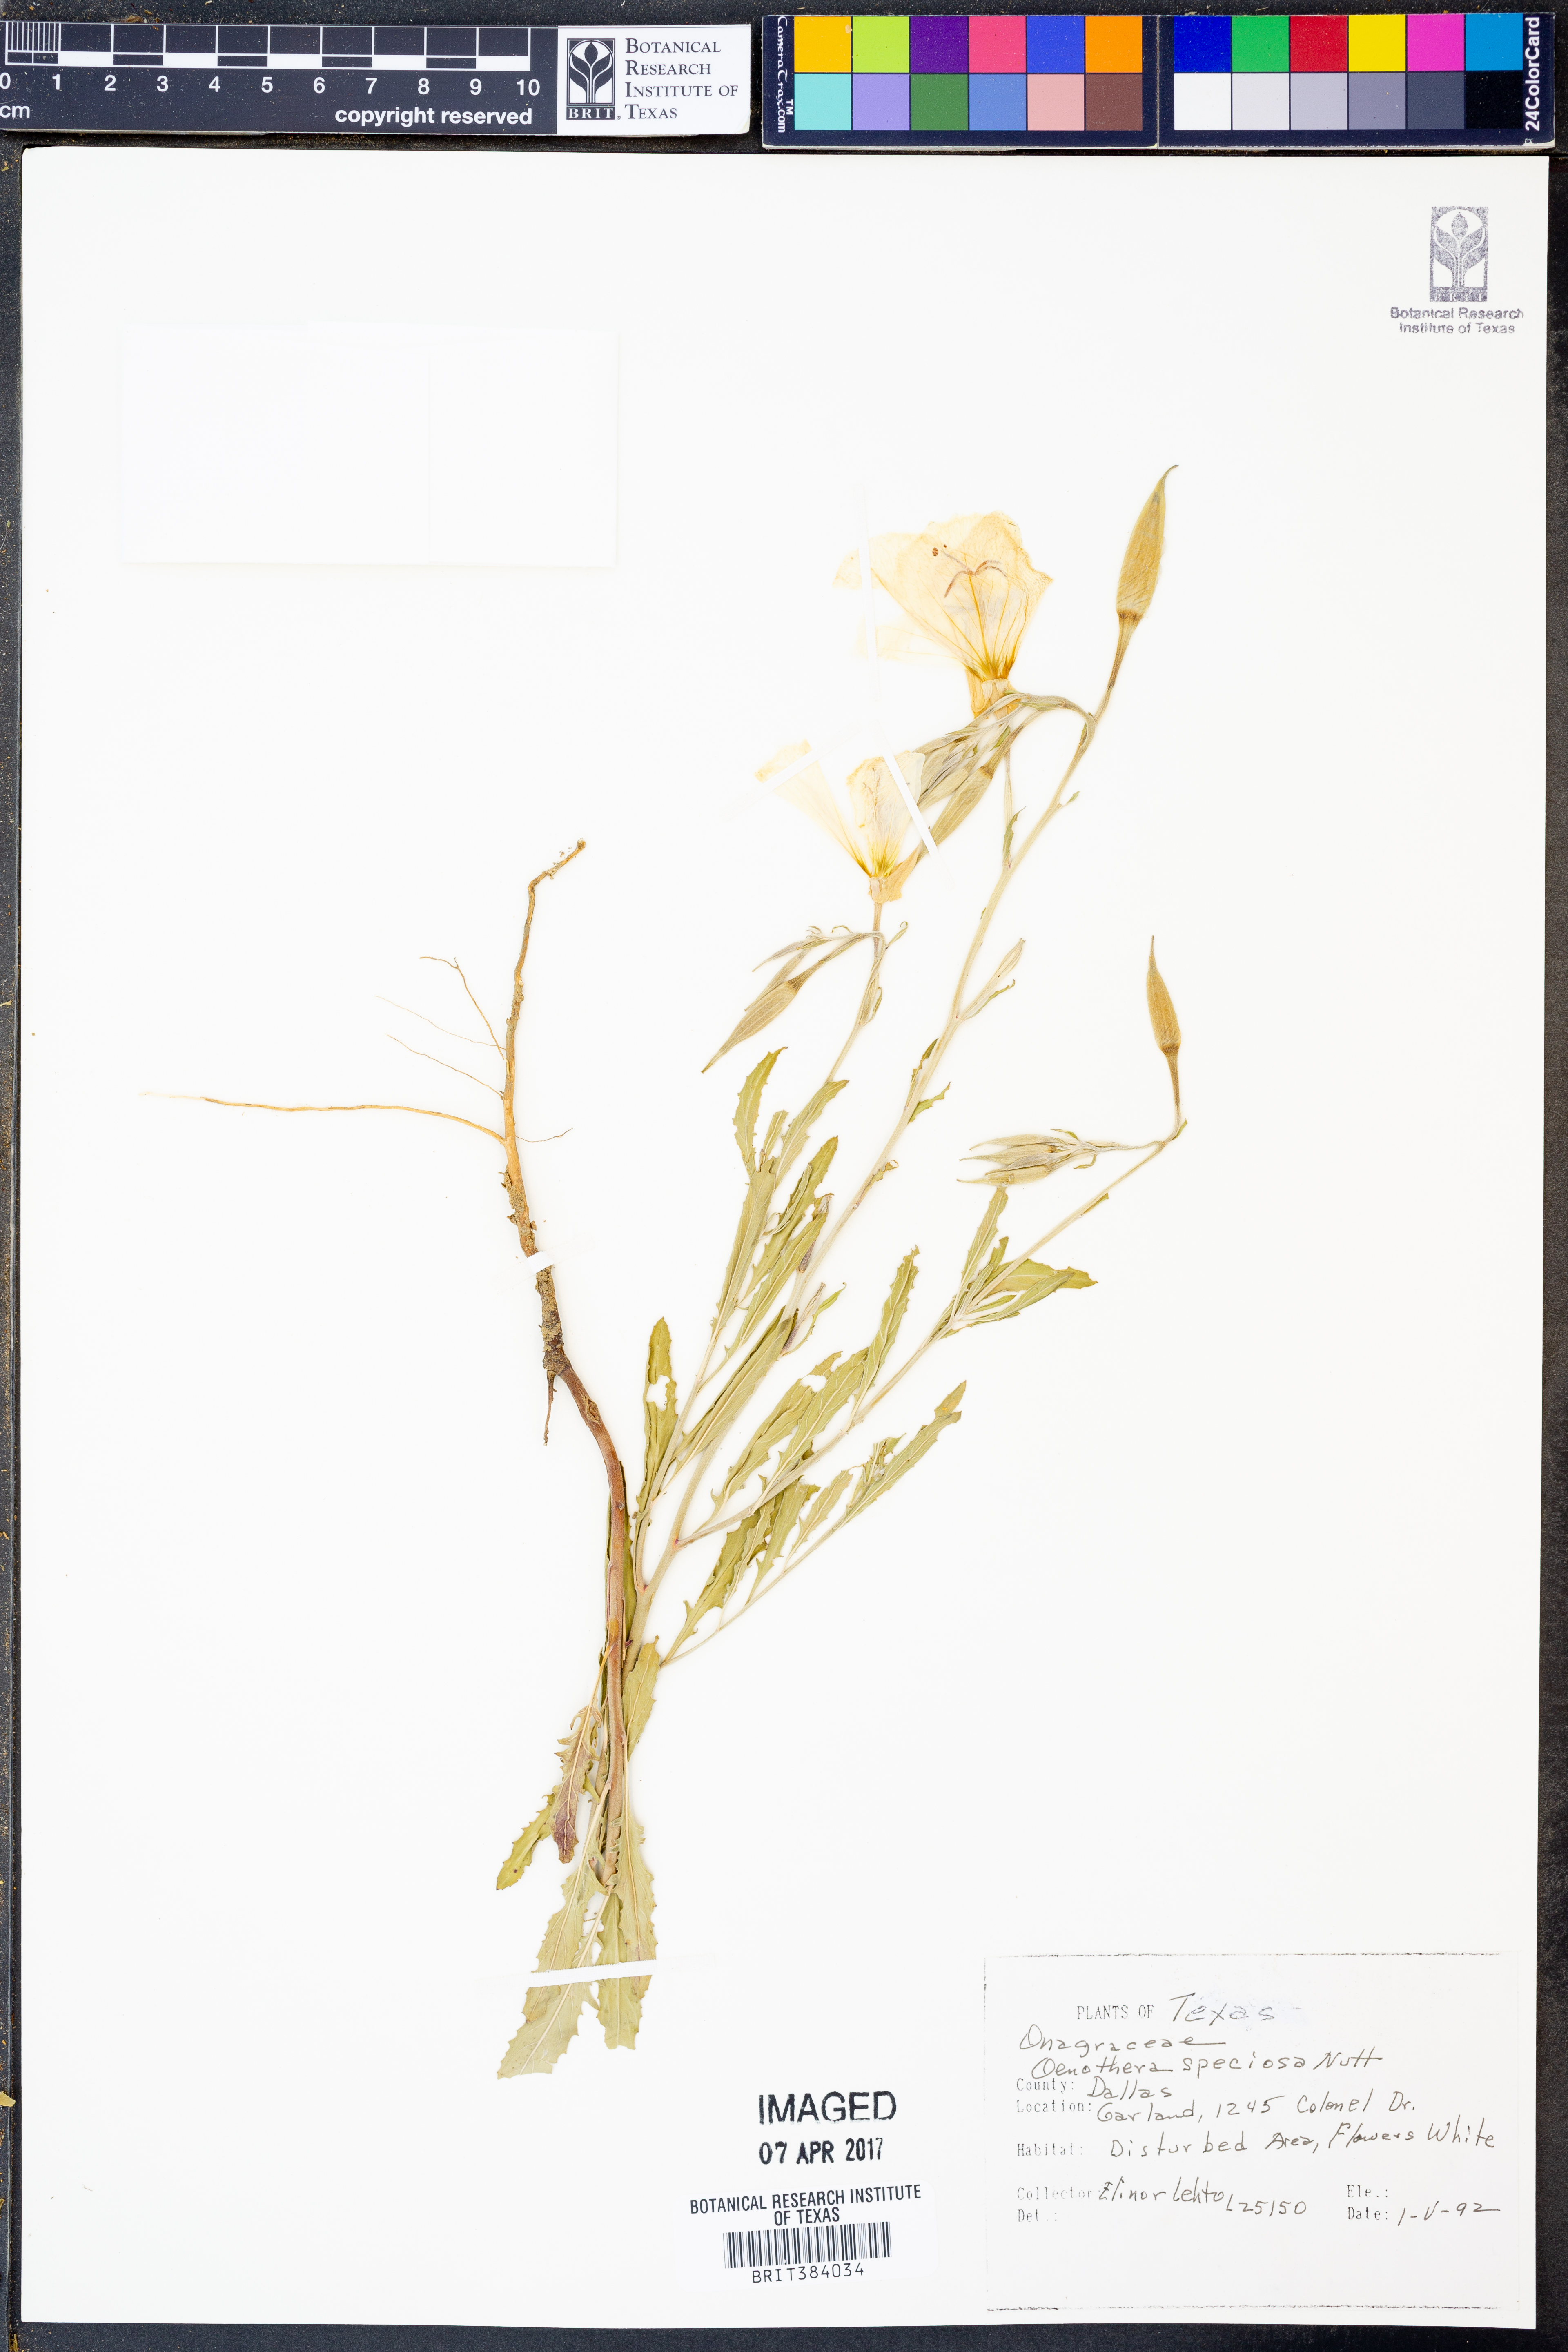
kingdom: Plantae
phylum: Tracheophyta
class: Magnoliopsida
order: Myrtales
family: Onagraceae
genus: Oenothera
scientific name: Oenothera speciosa
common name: White evening-primrose
